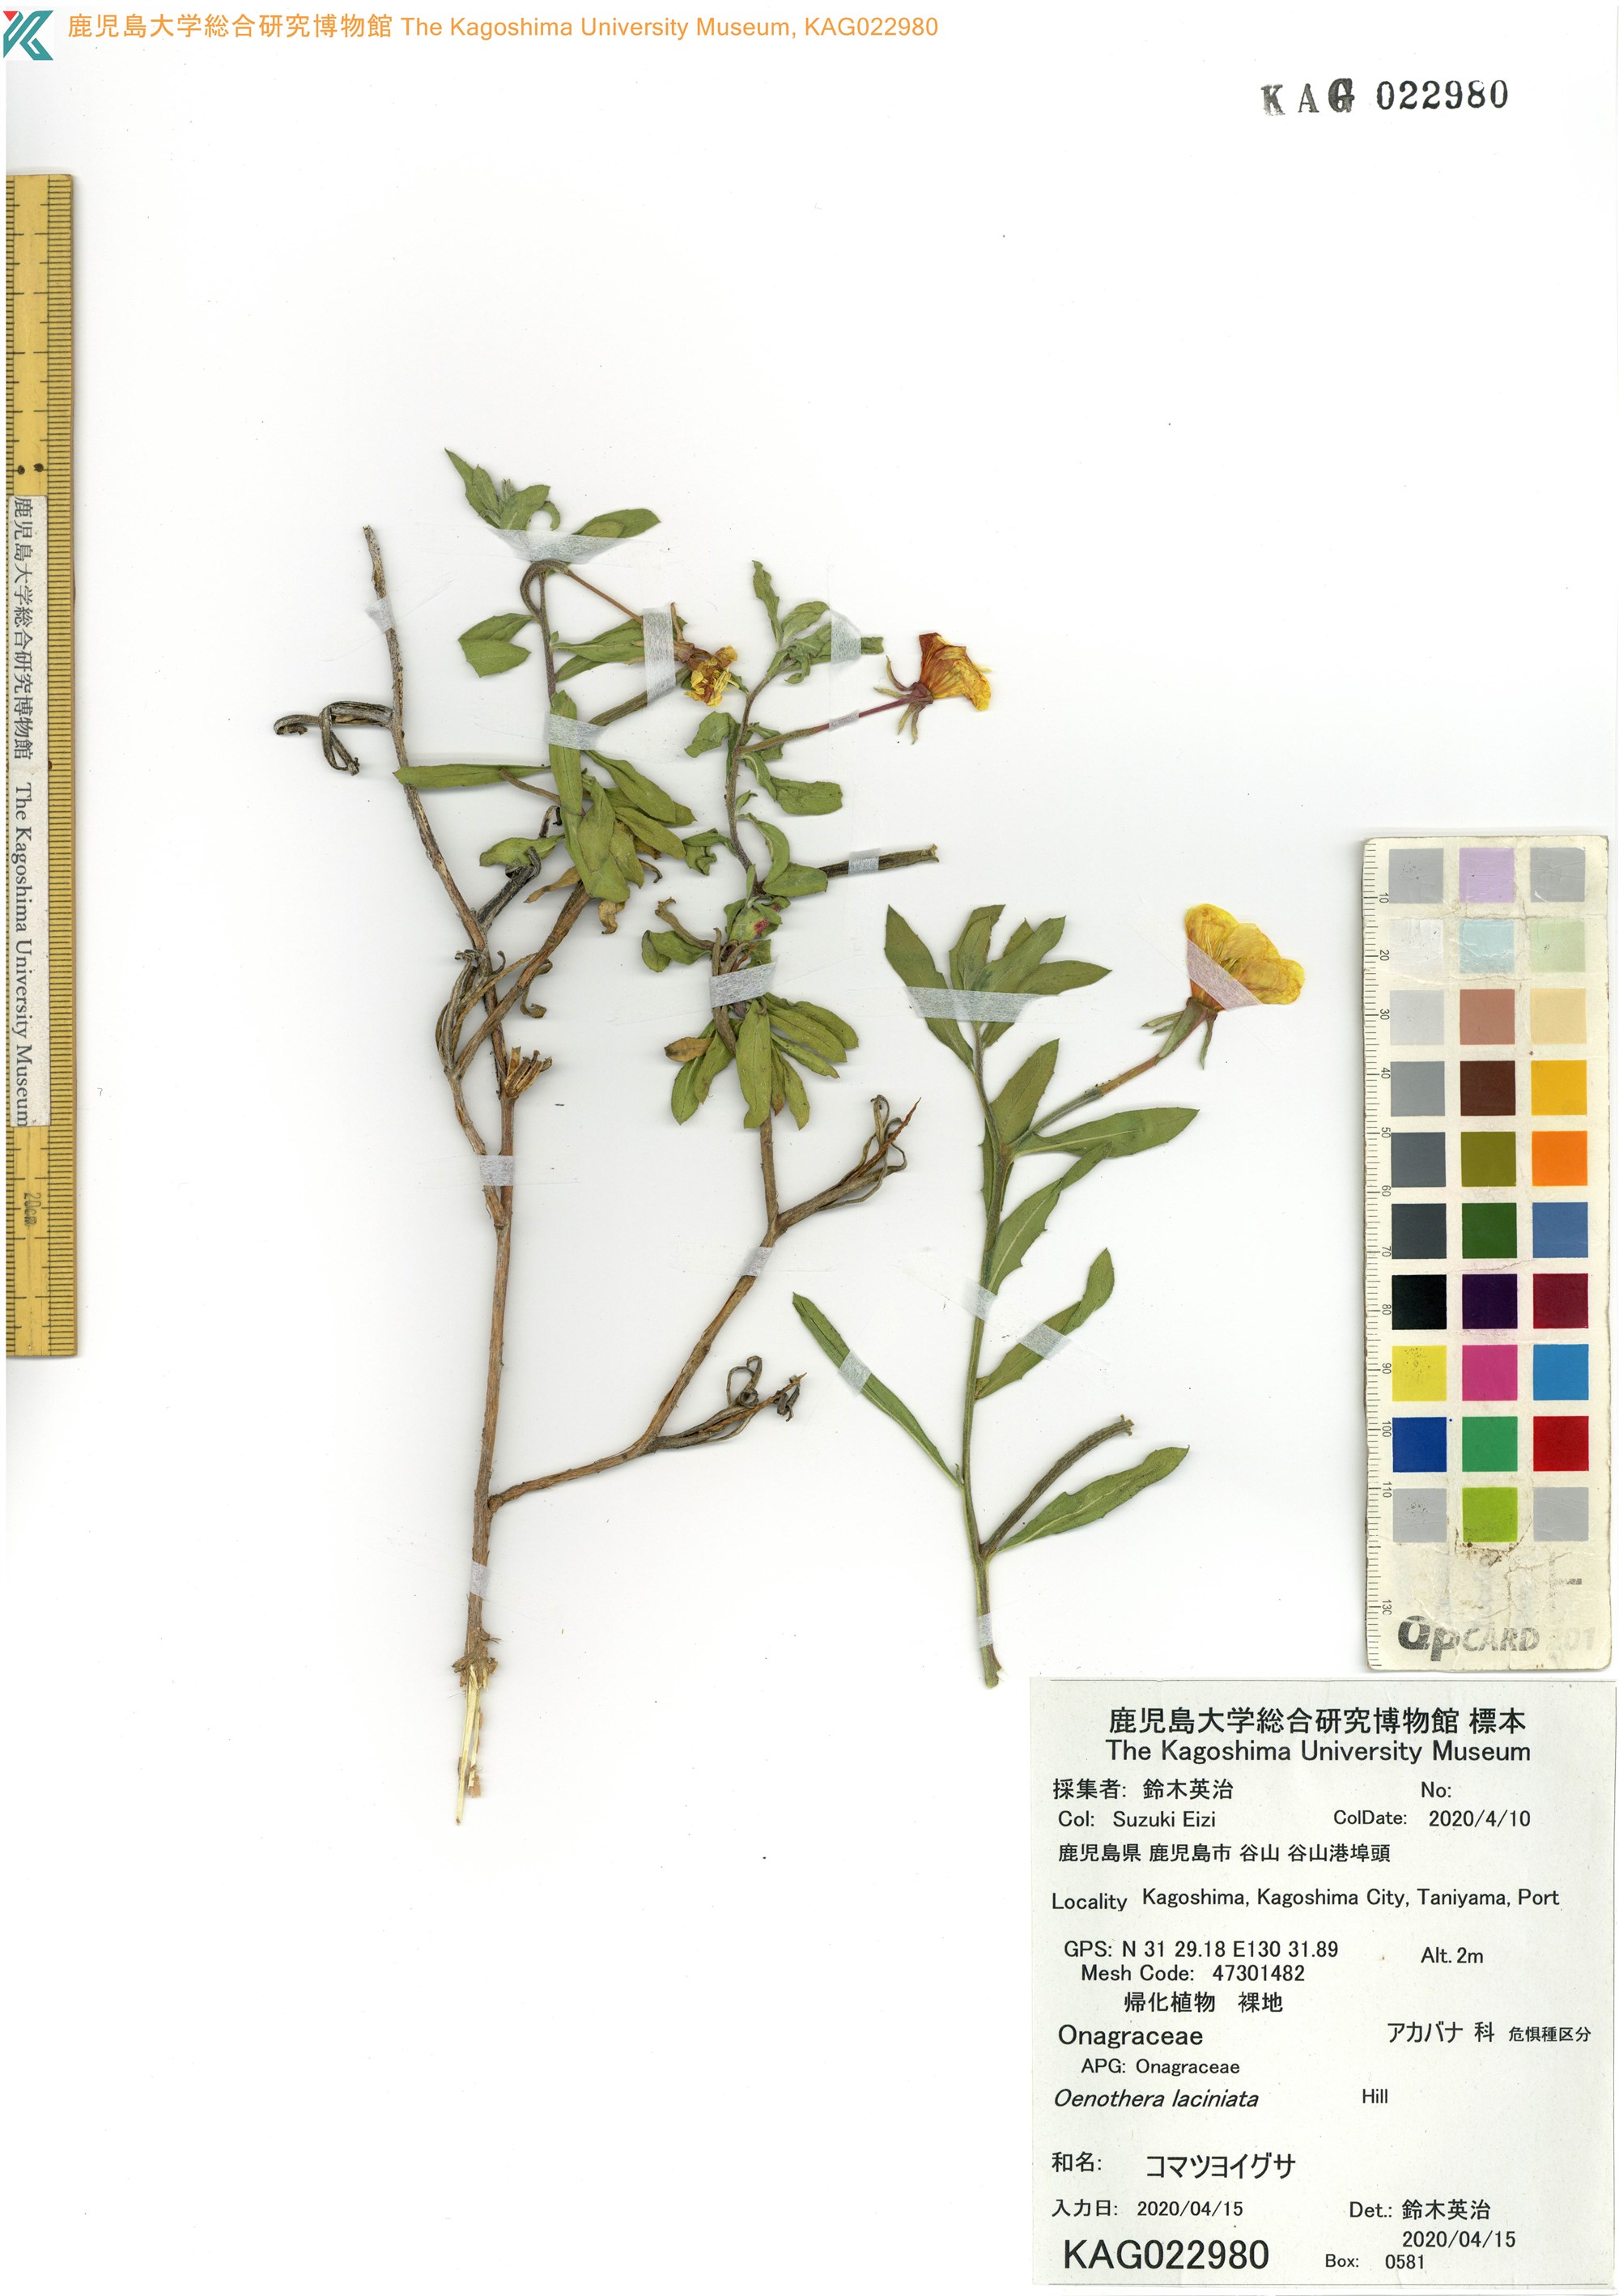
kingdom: Plantae
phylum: Tracheophyta
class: Magnoliopsida
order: Myrtales
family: Onagraceae
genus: Oenothera
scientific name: Oenothera laciniata
